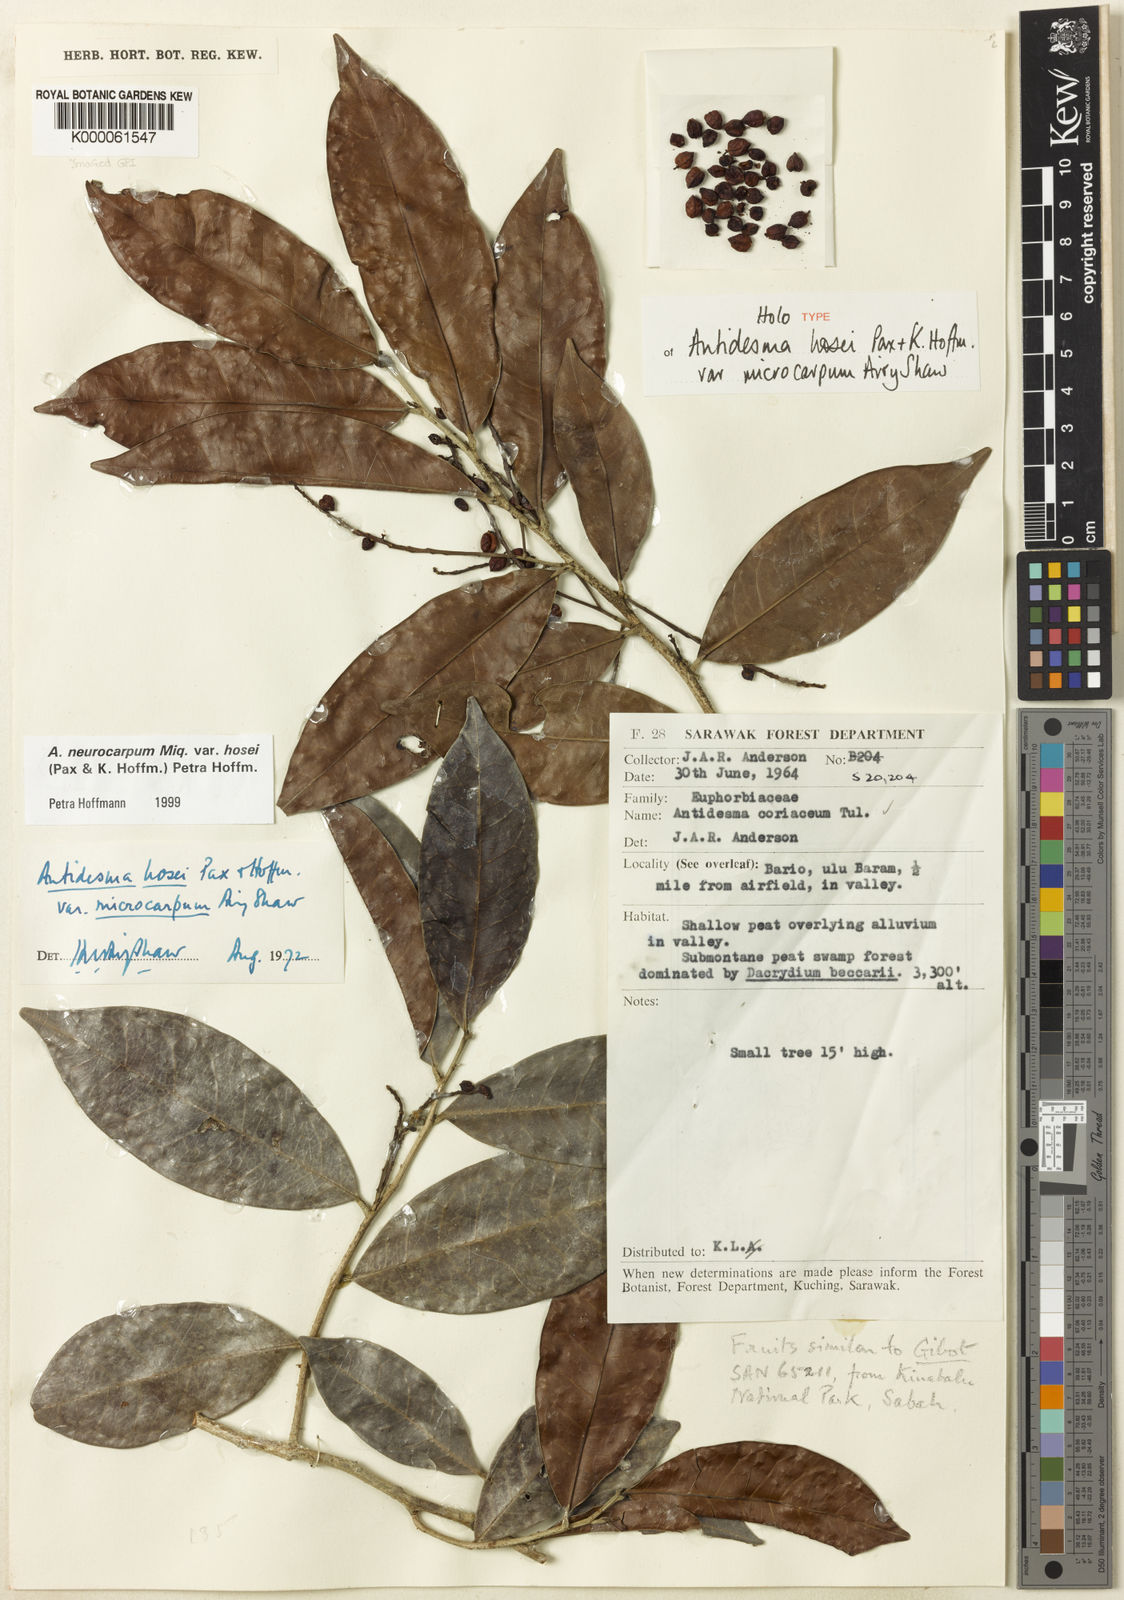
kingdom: Plantae
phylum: Tracheophyta
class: Magnoliopsida
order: Malpighiales
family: Phyllanthaceae
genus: Antidesma
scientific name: Antidesma neurocarpum
